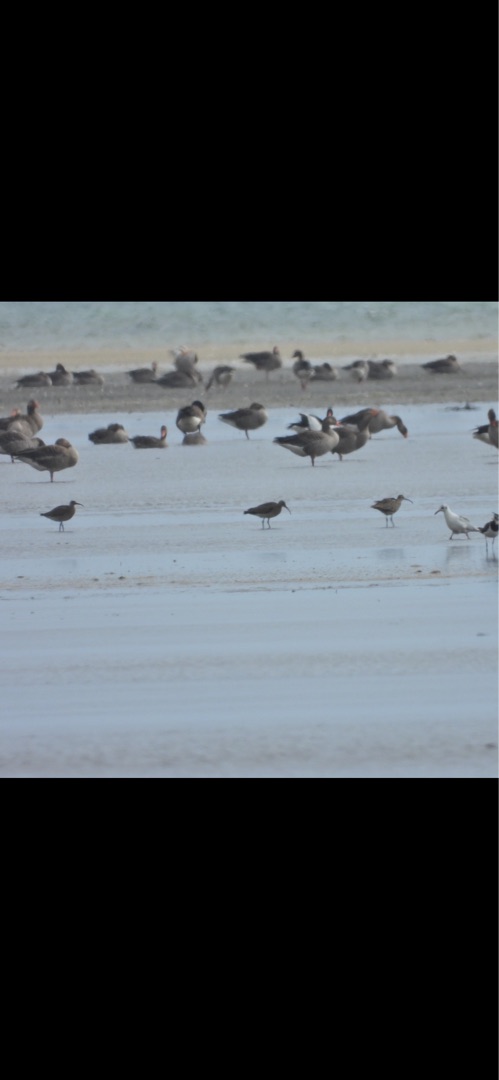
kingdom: Animalia
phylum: Chordata
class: Aves
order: Charadriiformes
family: Scolopacidae
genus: Numenius
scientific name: Numenius phaeopus
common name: Småspove
